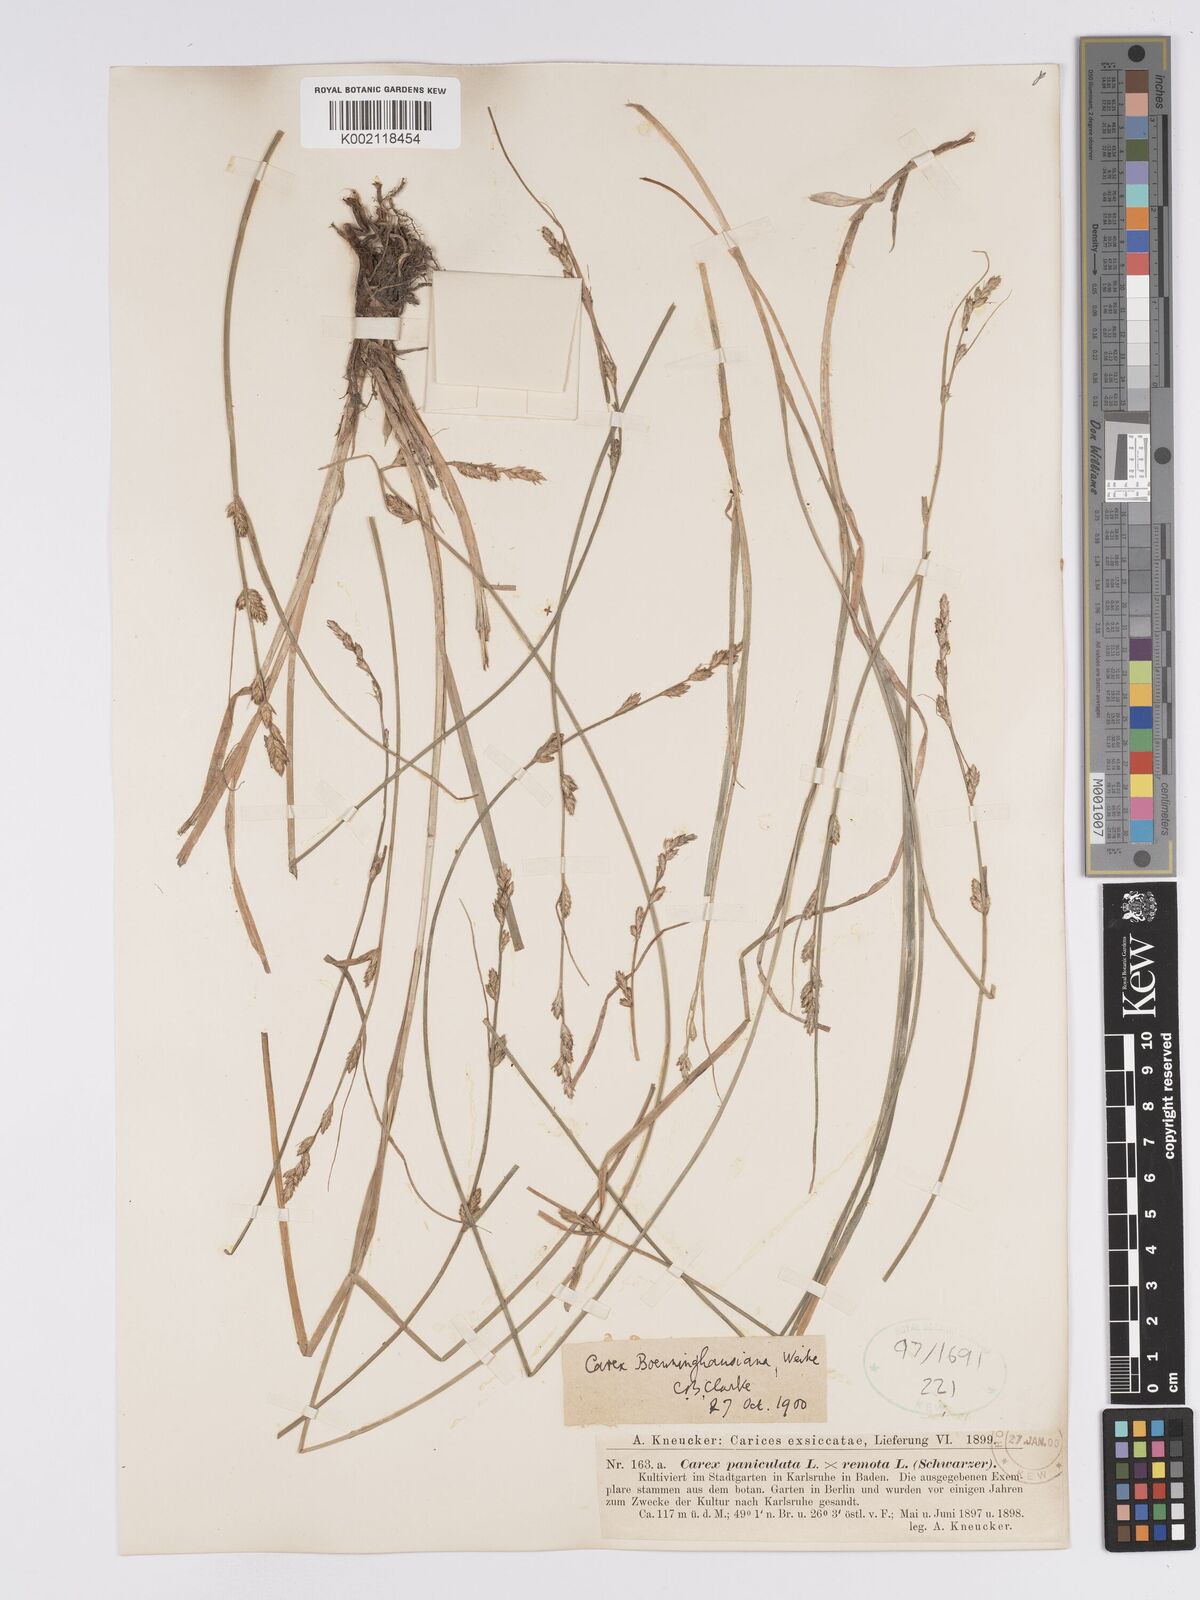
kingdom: Plantae
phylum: Tracheophyta
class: Liliopsida
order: Poales
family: Cyperaceae
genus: Carex
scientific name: Carex boenninghausiana
